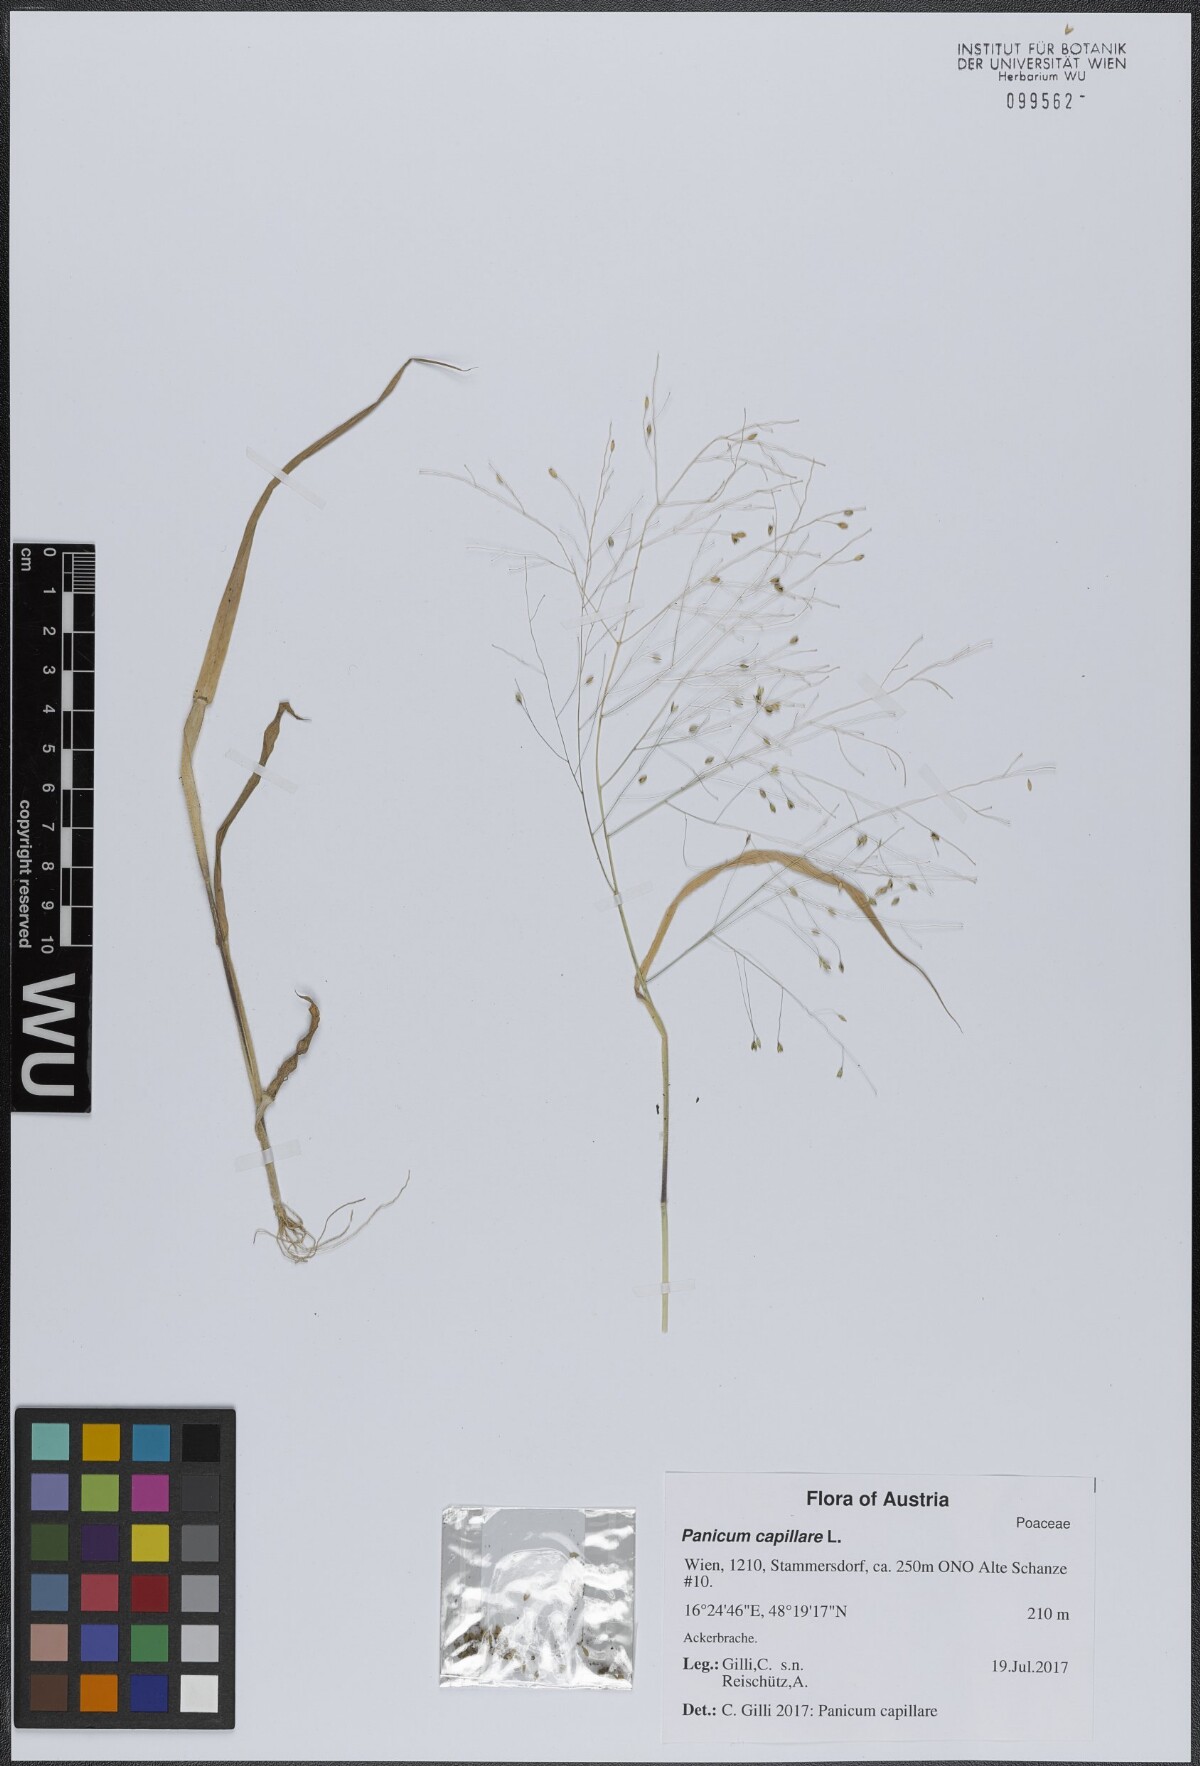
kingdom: Plantae
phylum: Tracheophyta
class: Liliopsida
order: Poales
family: Poaceae
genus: Panicum
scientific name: Panicum capillare
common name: Witch-grass
